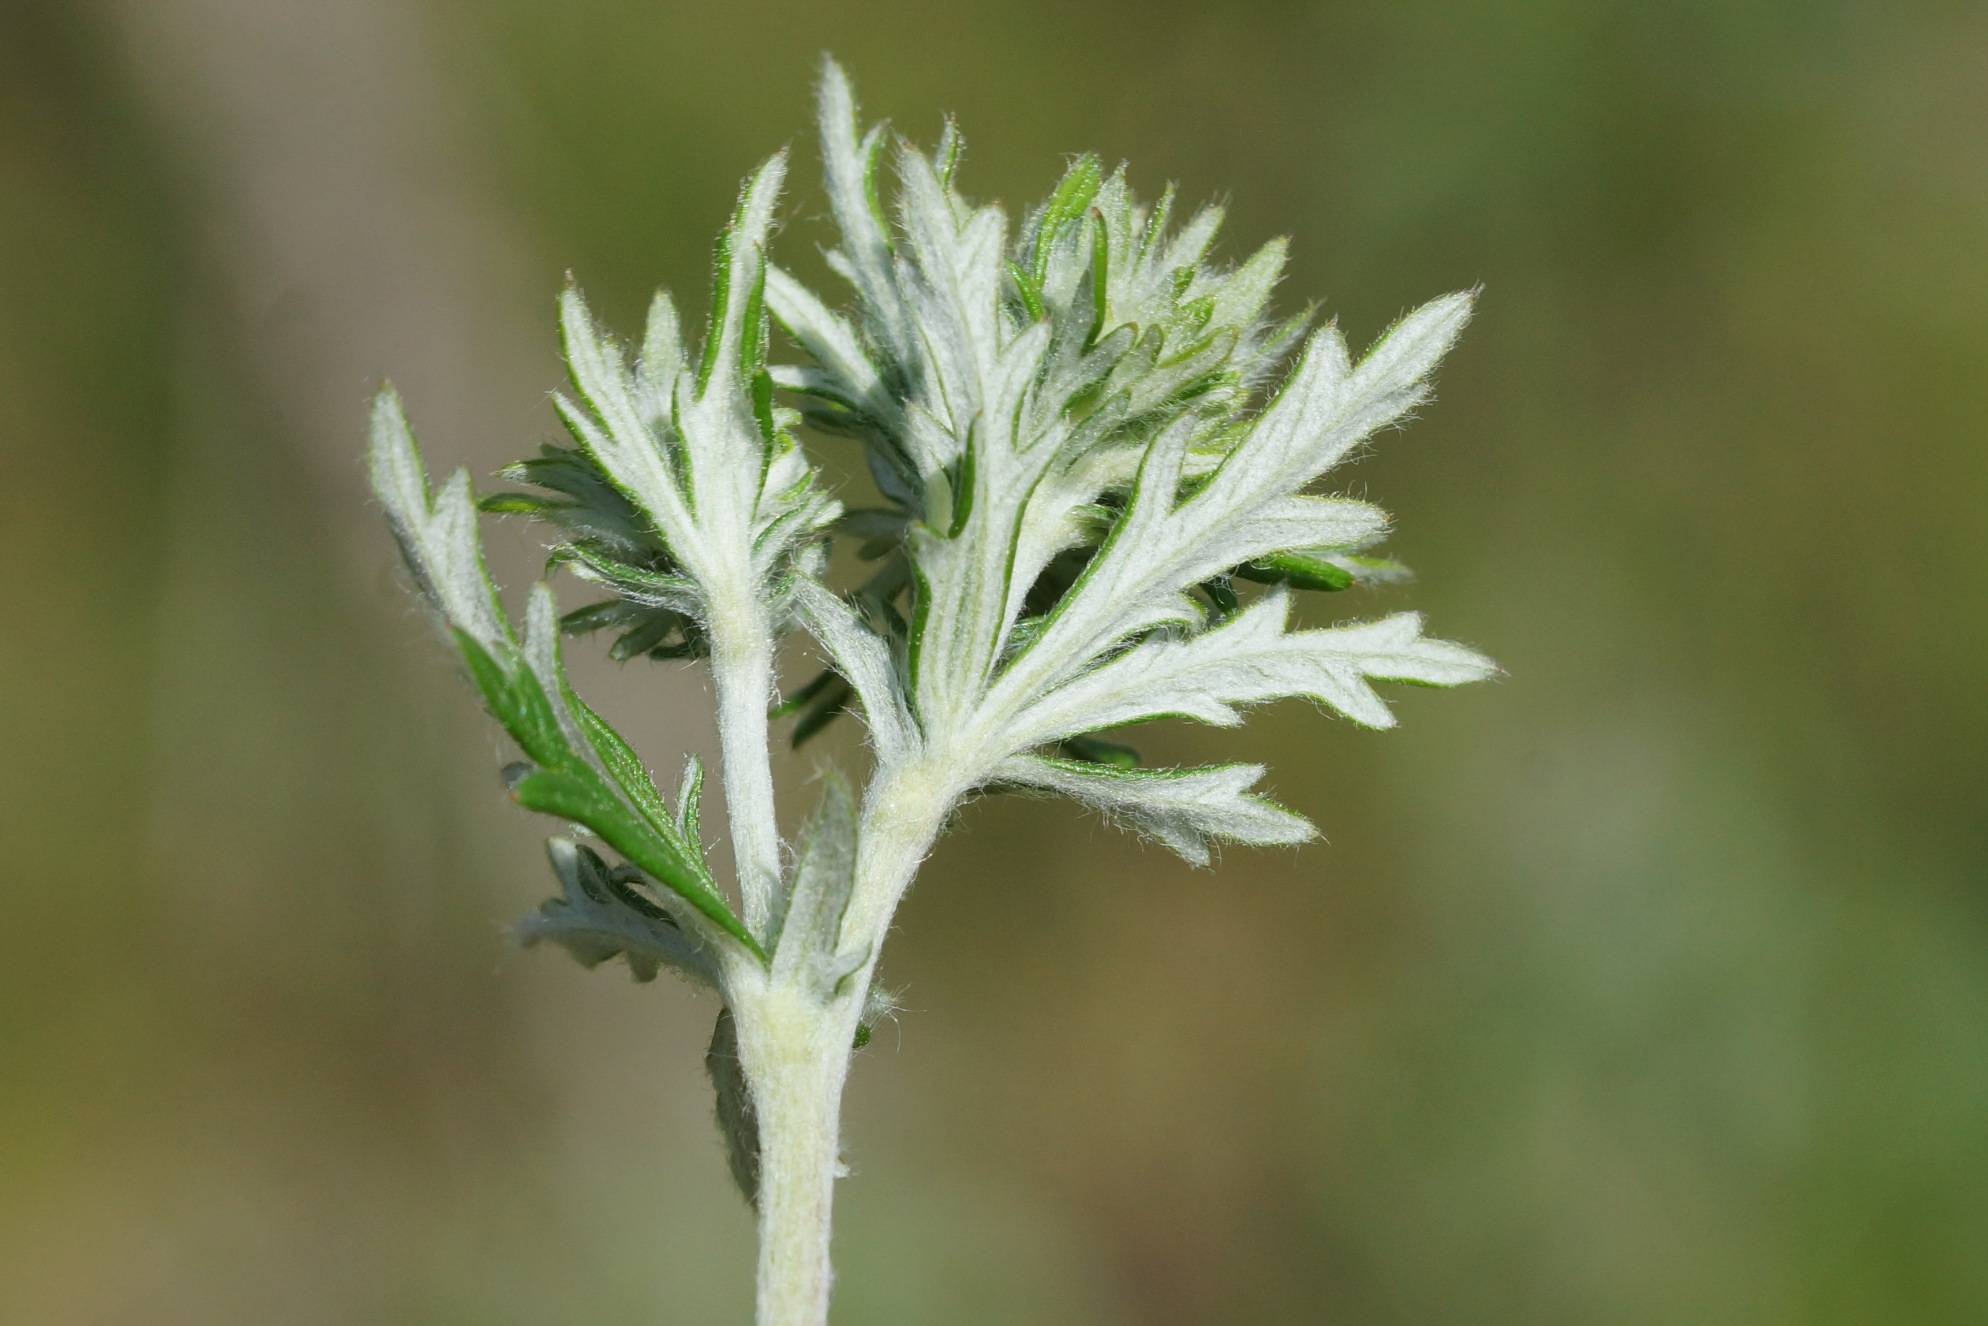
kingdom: Plantae
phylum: Tracheophyta
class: Magnoliopsida
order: Rosales
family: Rosaceae
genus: Potentilla
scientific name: Potentilla argentea
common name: Sølv-potentil
